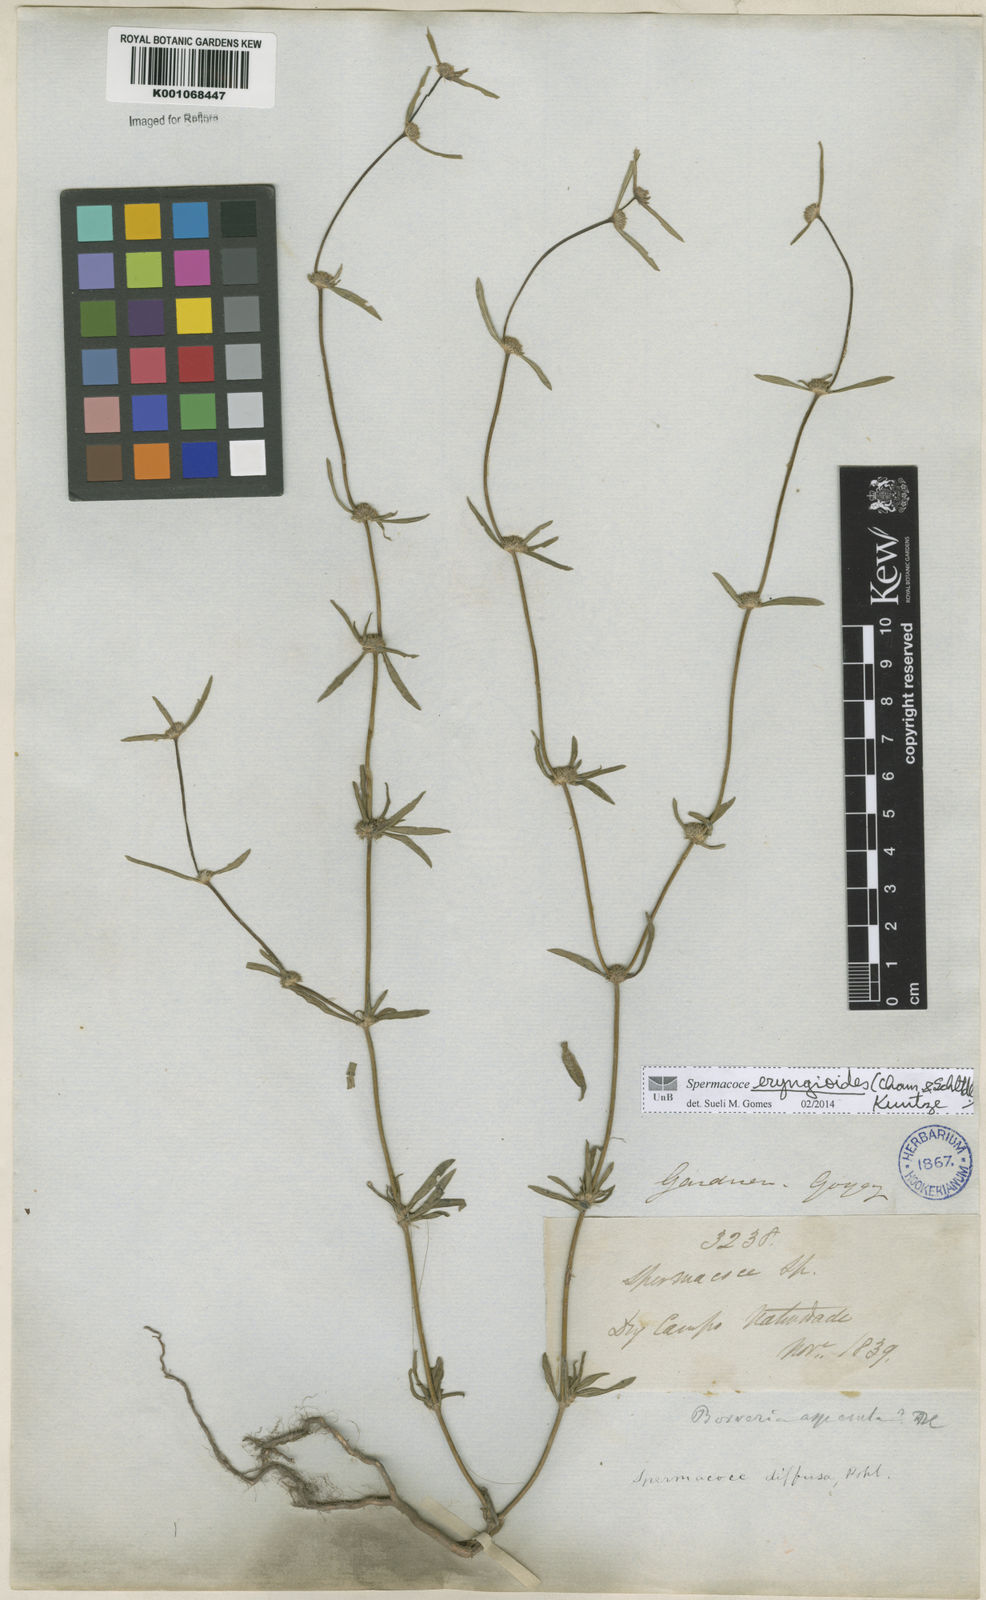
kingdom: Plantae
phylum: Tracheophyta
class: Magnoliopsida
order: Gentianales
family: Rubiaceae
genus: Spermacoce
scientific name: Spermacoce eryngioides
